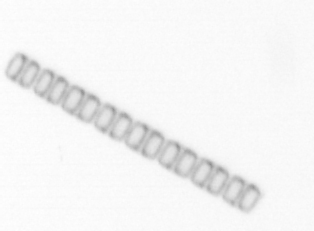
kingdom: Chromista
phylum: Ochrophyta
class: Bacillariophyceae
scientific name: Bacillariophyceae
